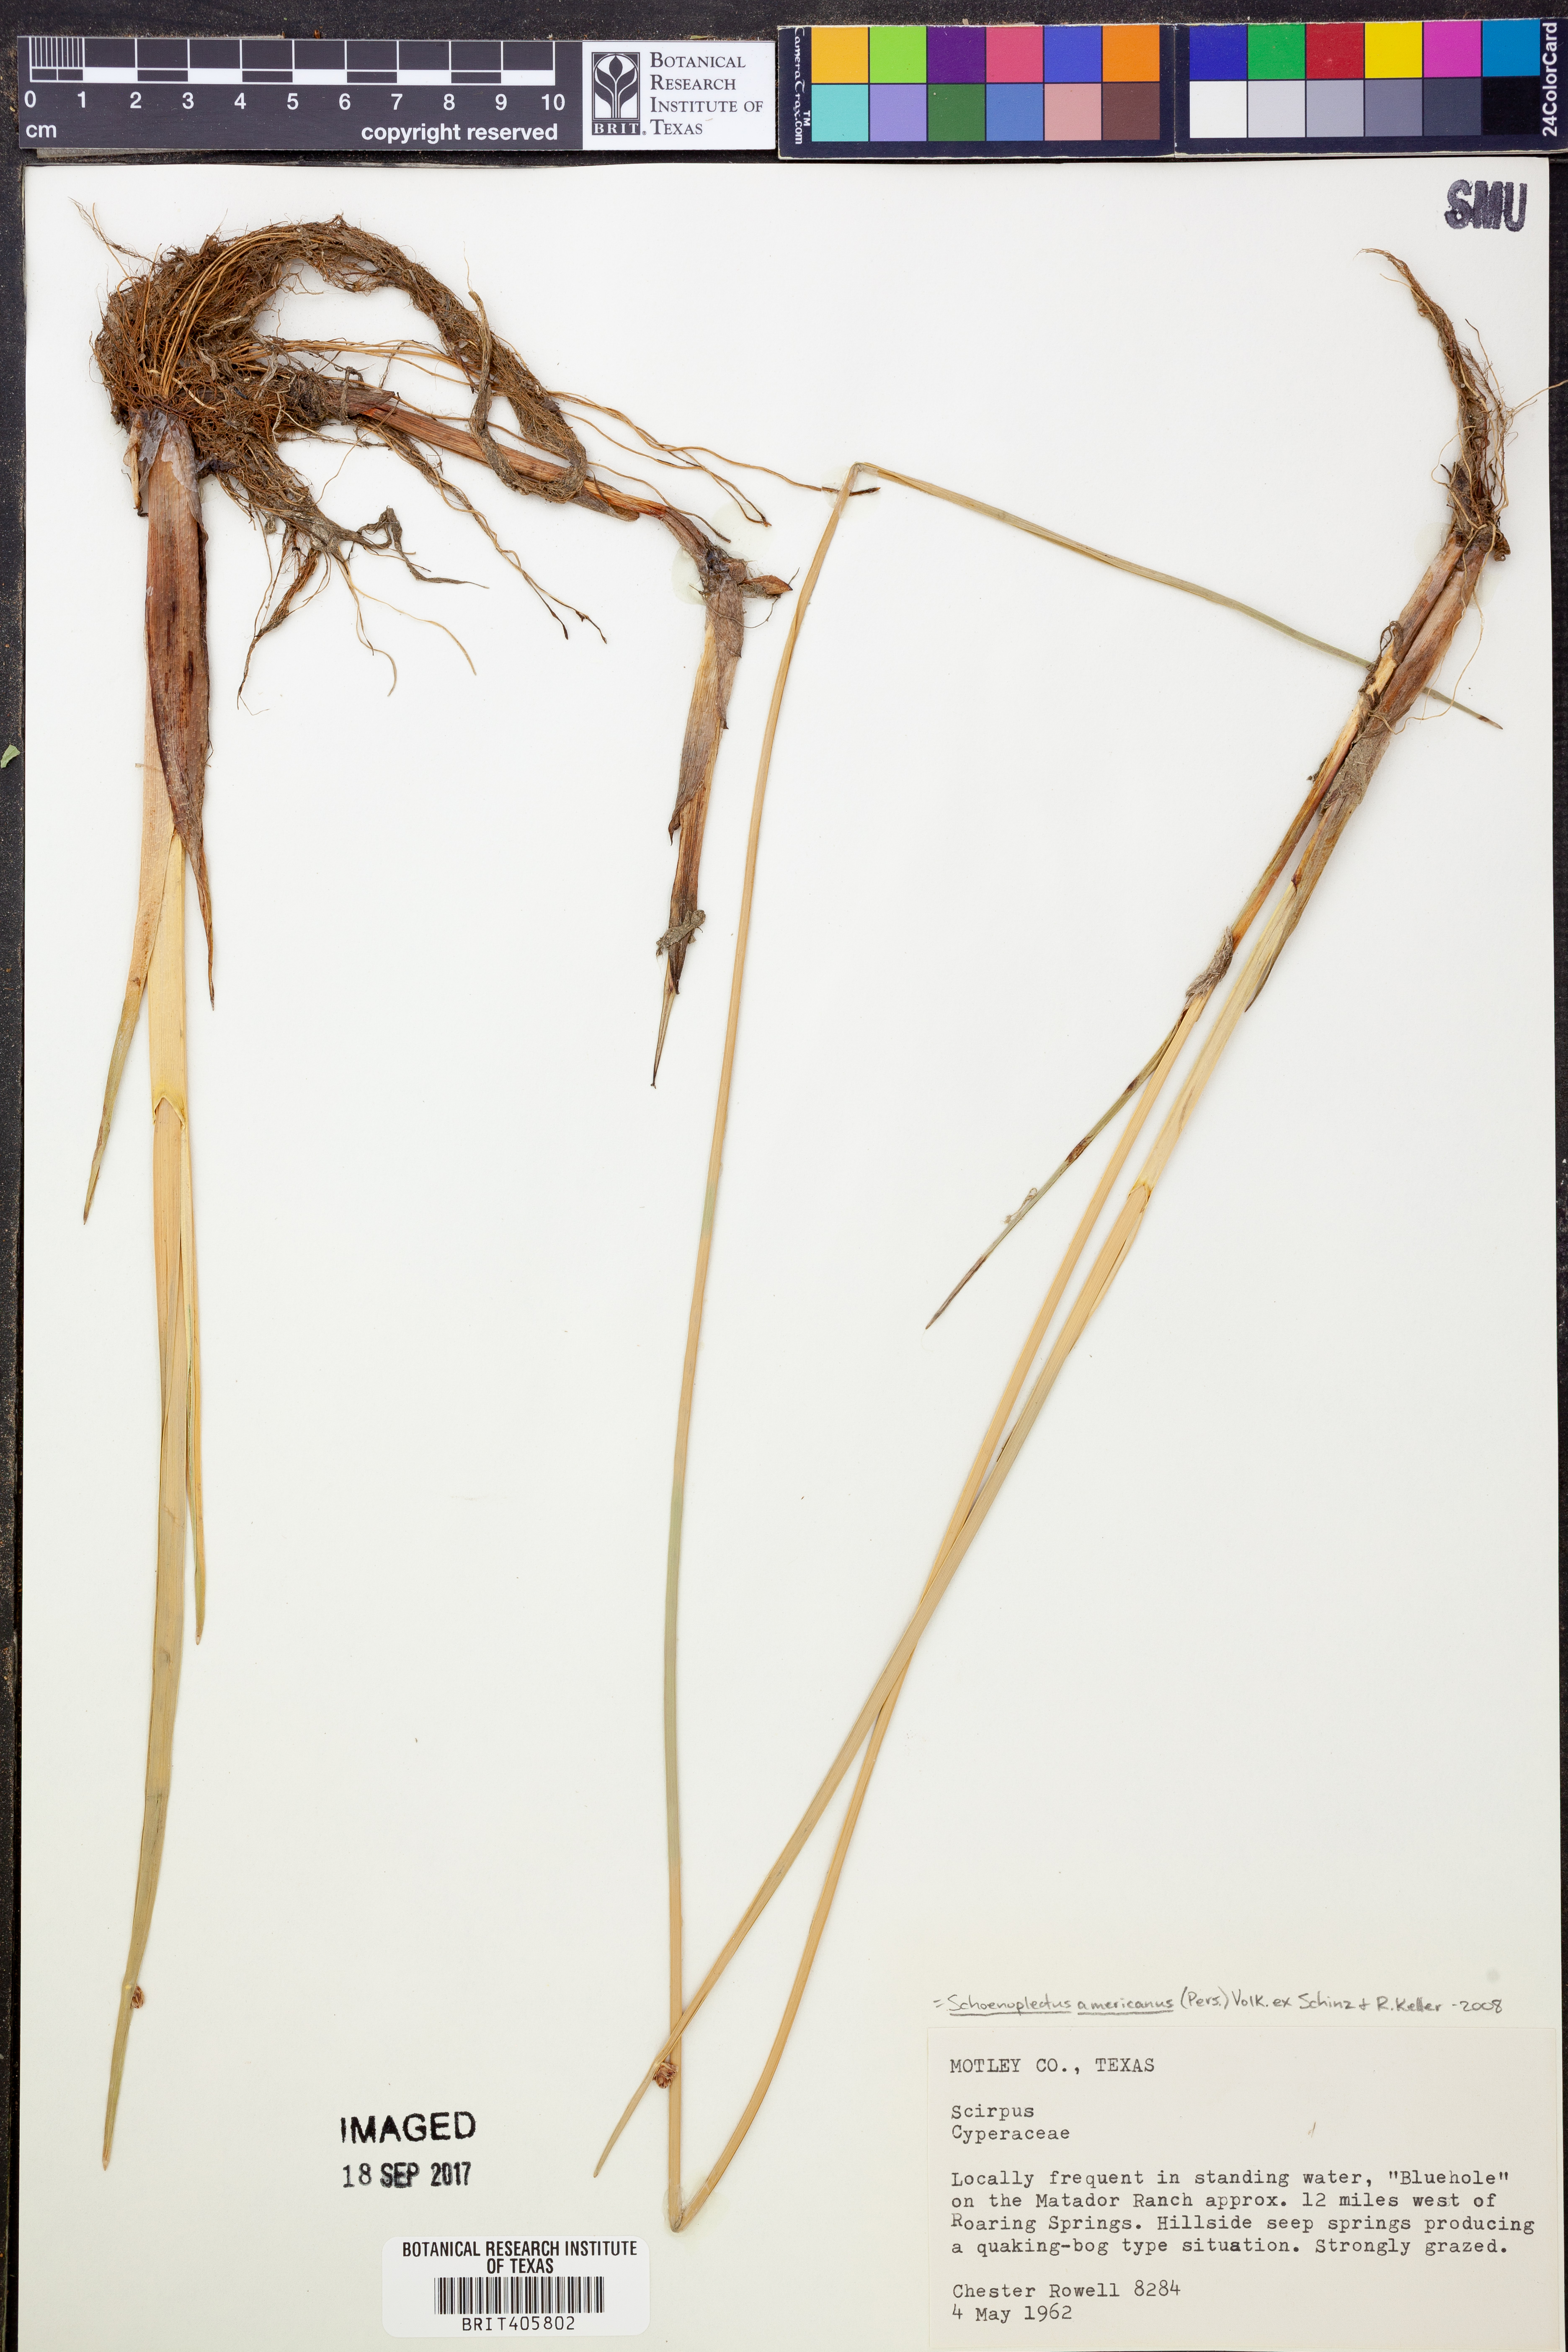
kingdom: Plantae
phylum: Tracheophyta
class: Liliopsida
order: Poales
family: Cyperaceae
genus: Schoenoplectus
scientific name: Schoenoplectus americanus
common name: American three-square bulrush
